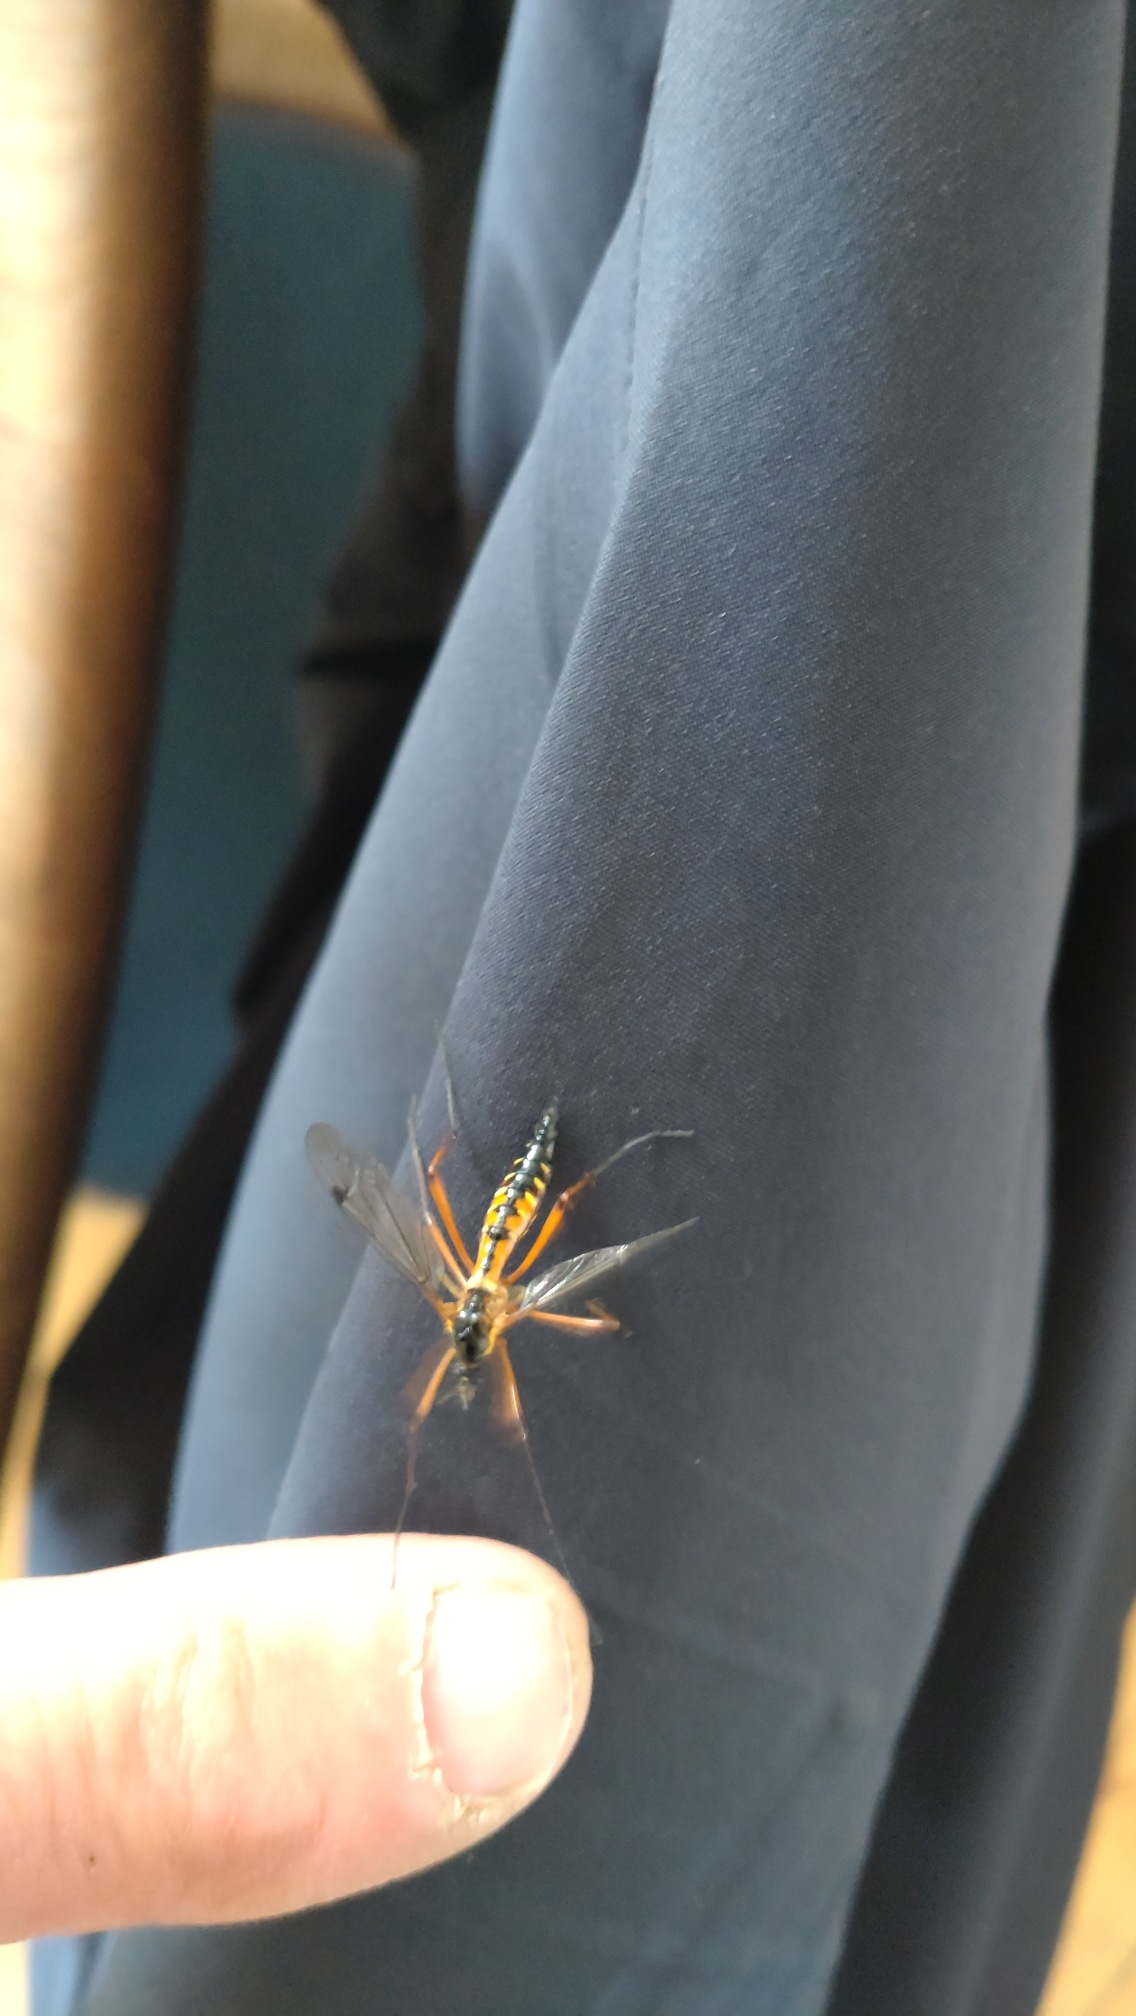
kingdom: Animalia
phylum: Arthropoda
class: Insecta
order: Diptera
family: Tipulidae
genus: Ctenophora
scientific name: Ctenophora pectinicornis
